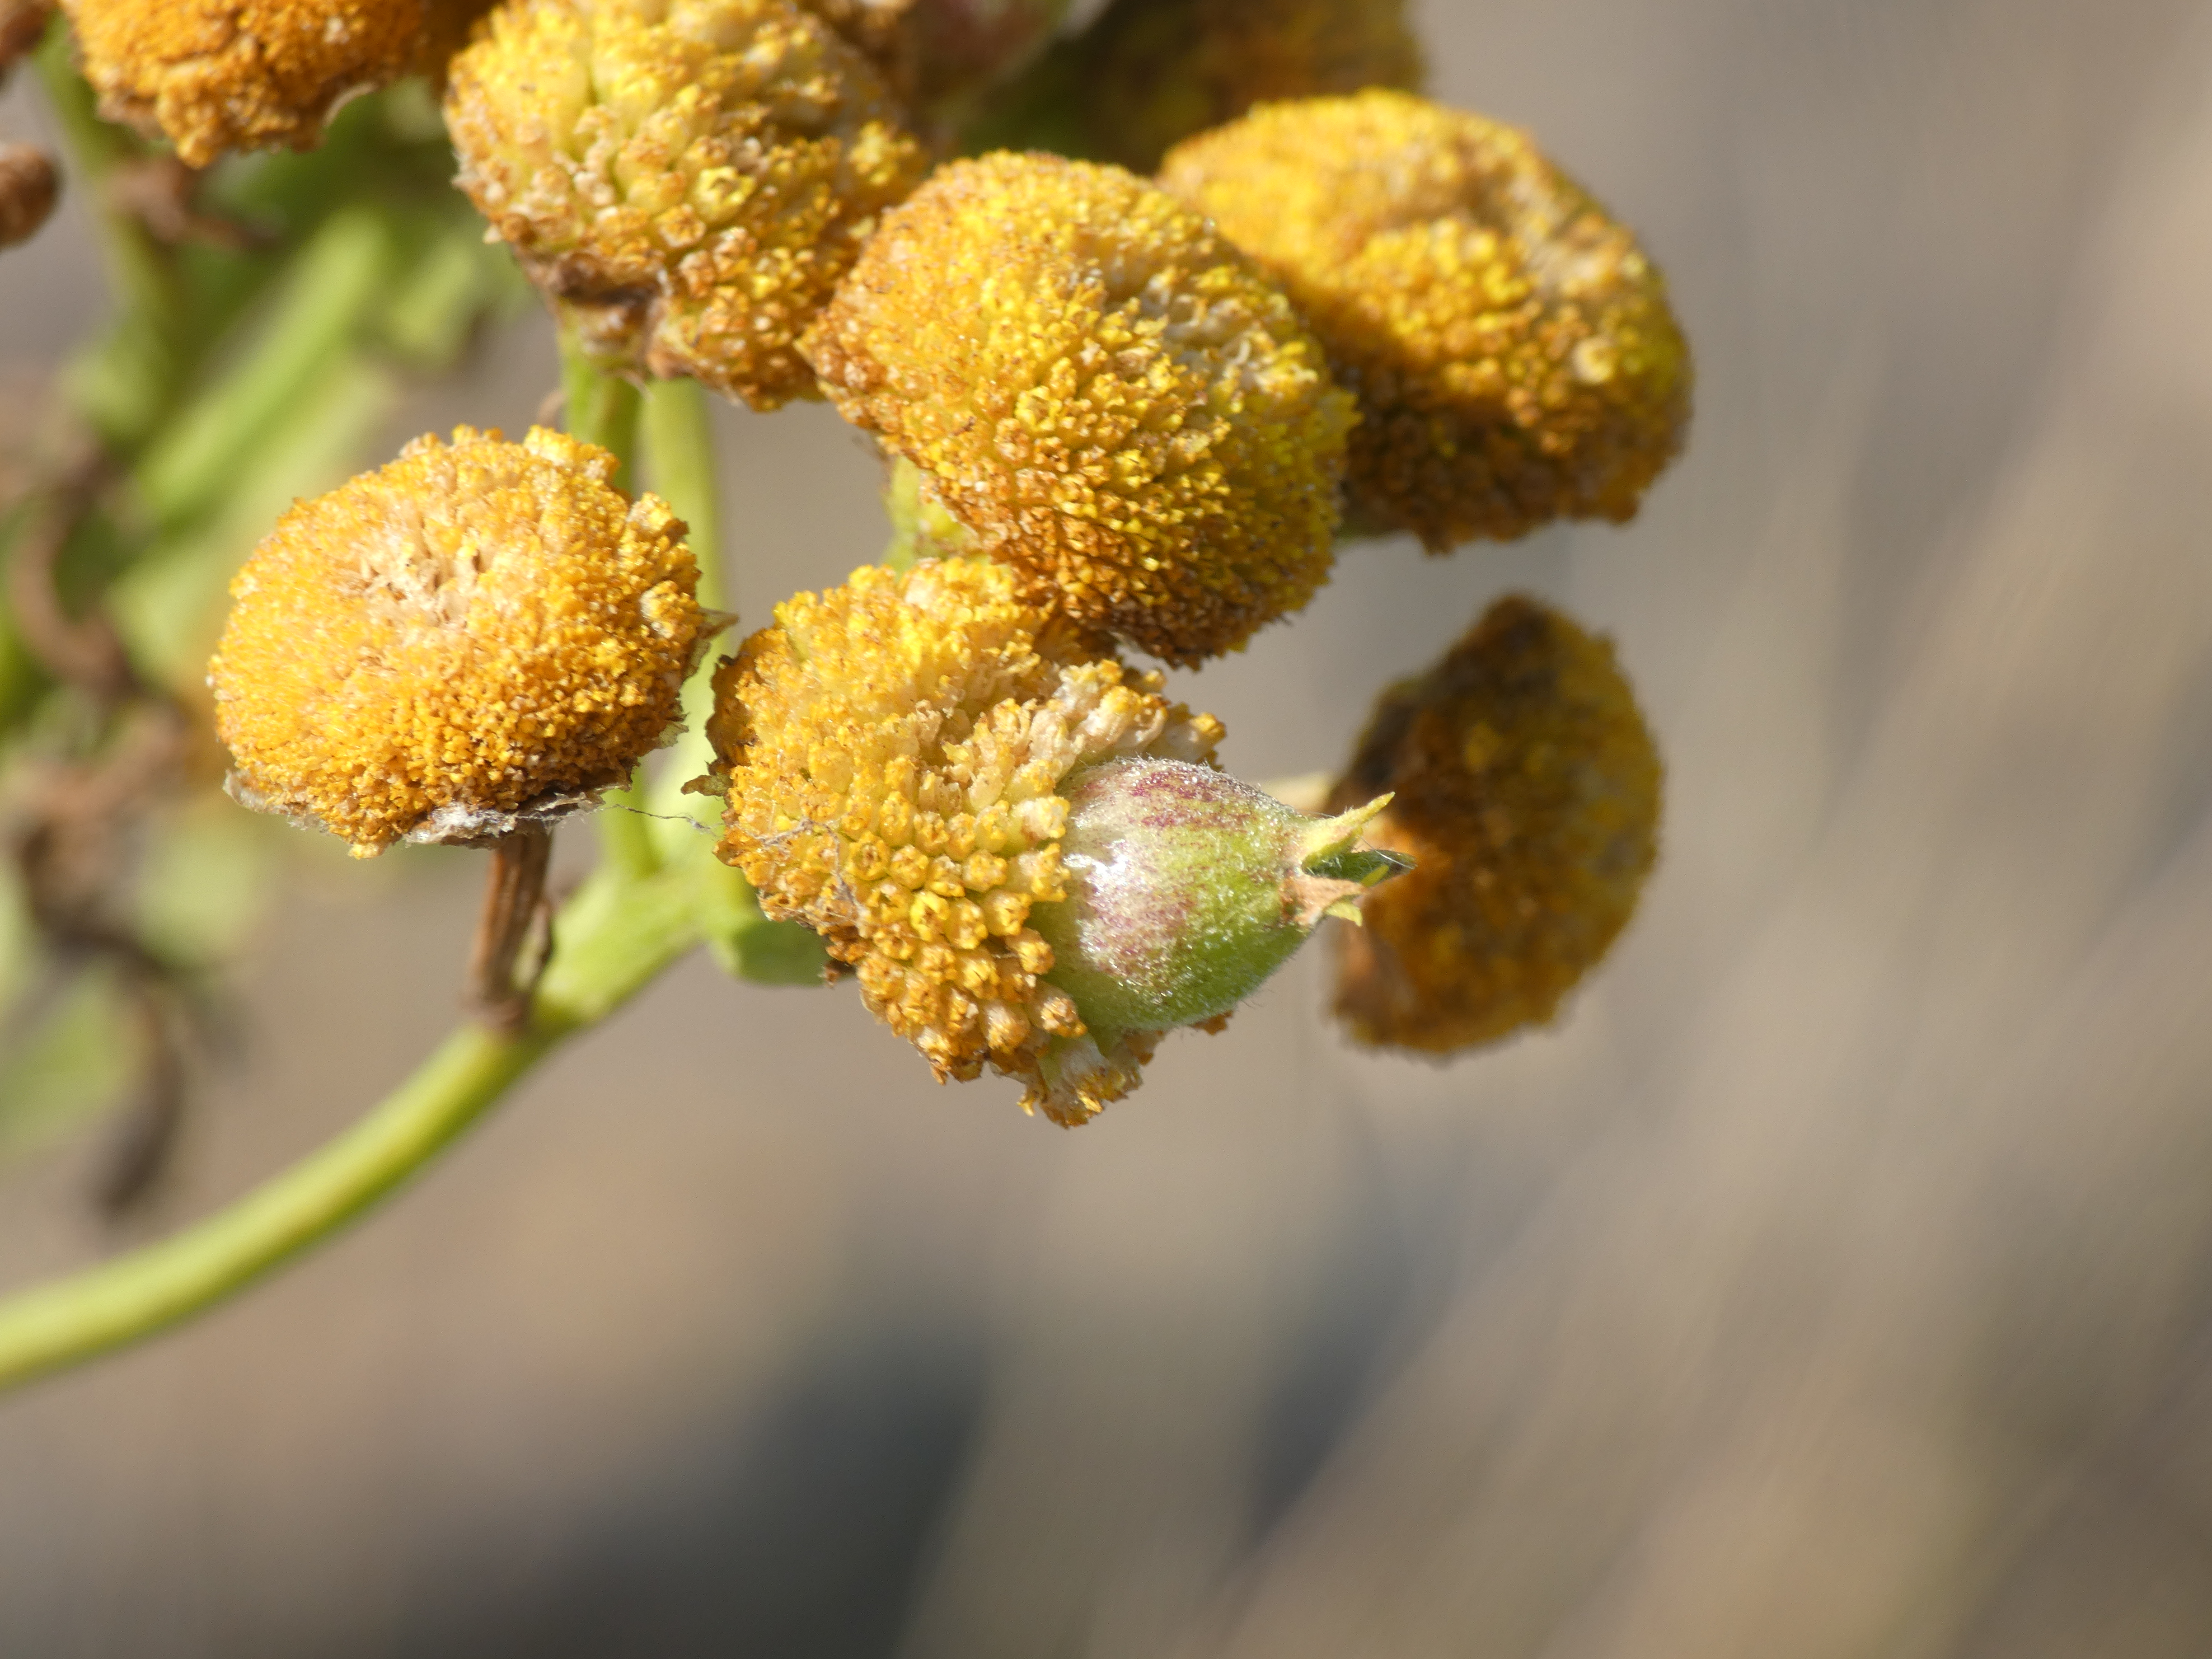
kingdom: Animalia
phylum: Arthropoda
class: Insecta
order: Diptera
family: Cecidomyiidae
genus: Rhopalomyia
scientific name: Rhopalomyia tanaceticolus
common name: Rejnfangalmyg
